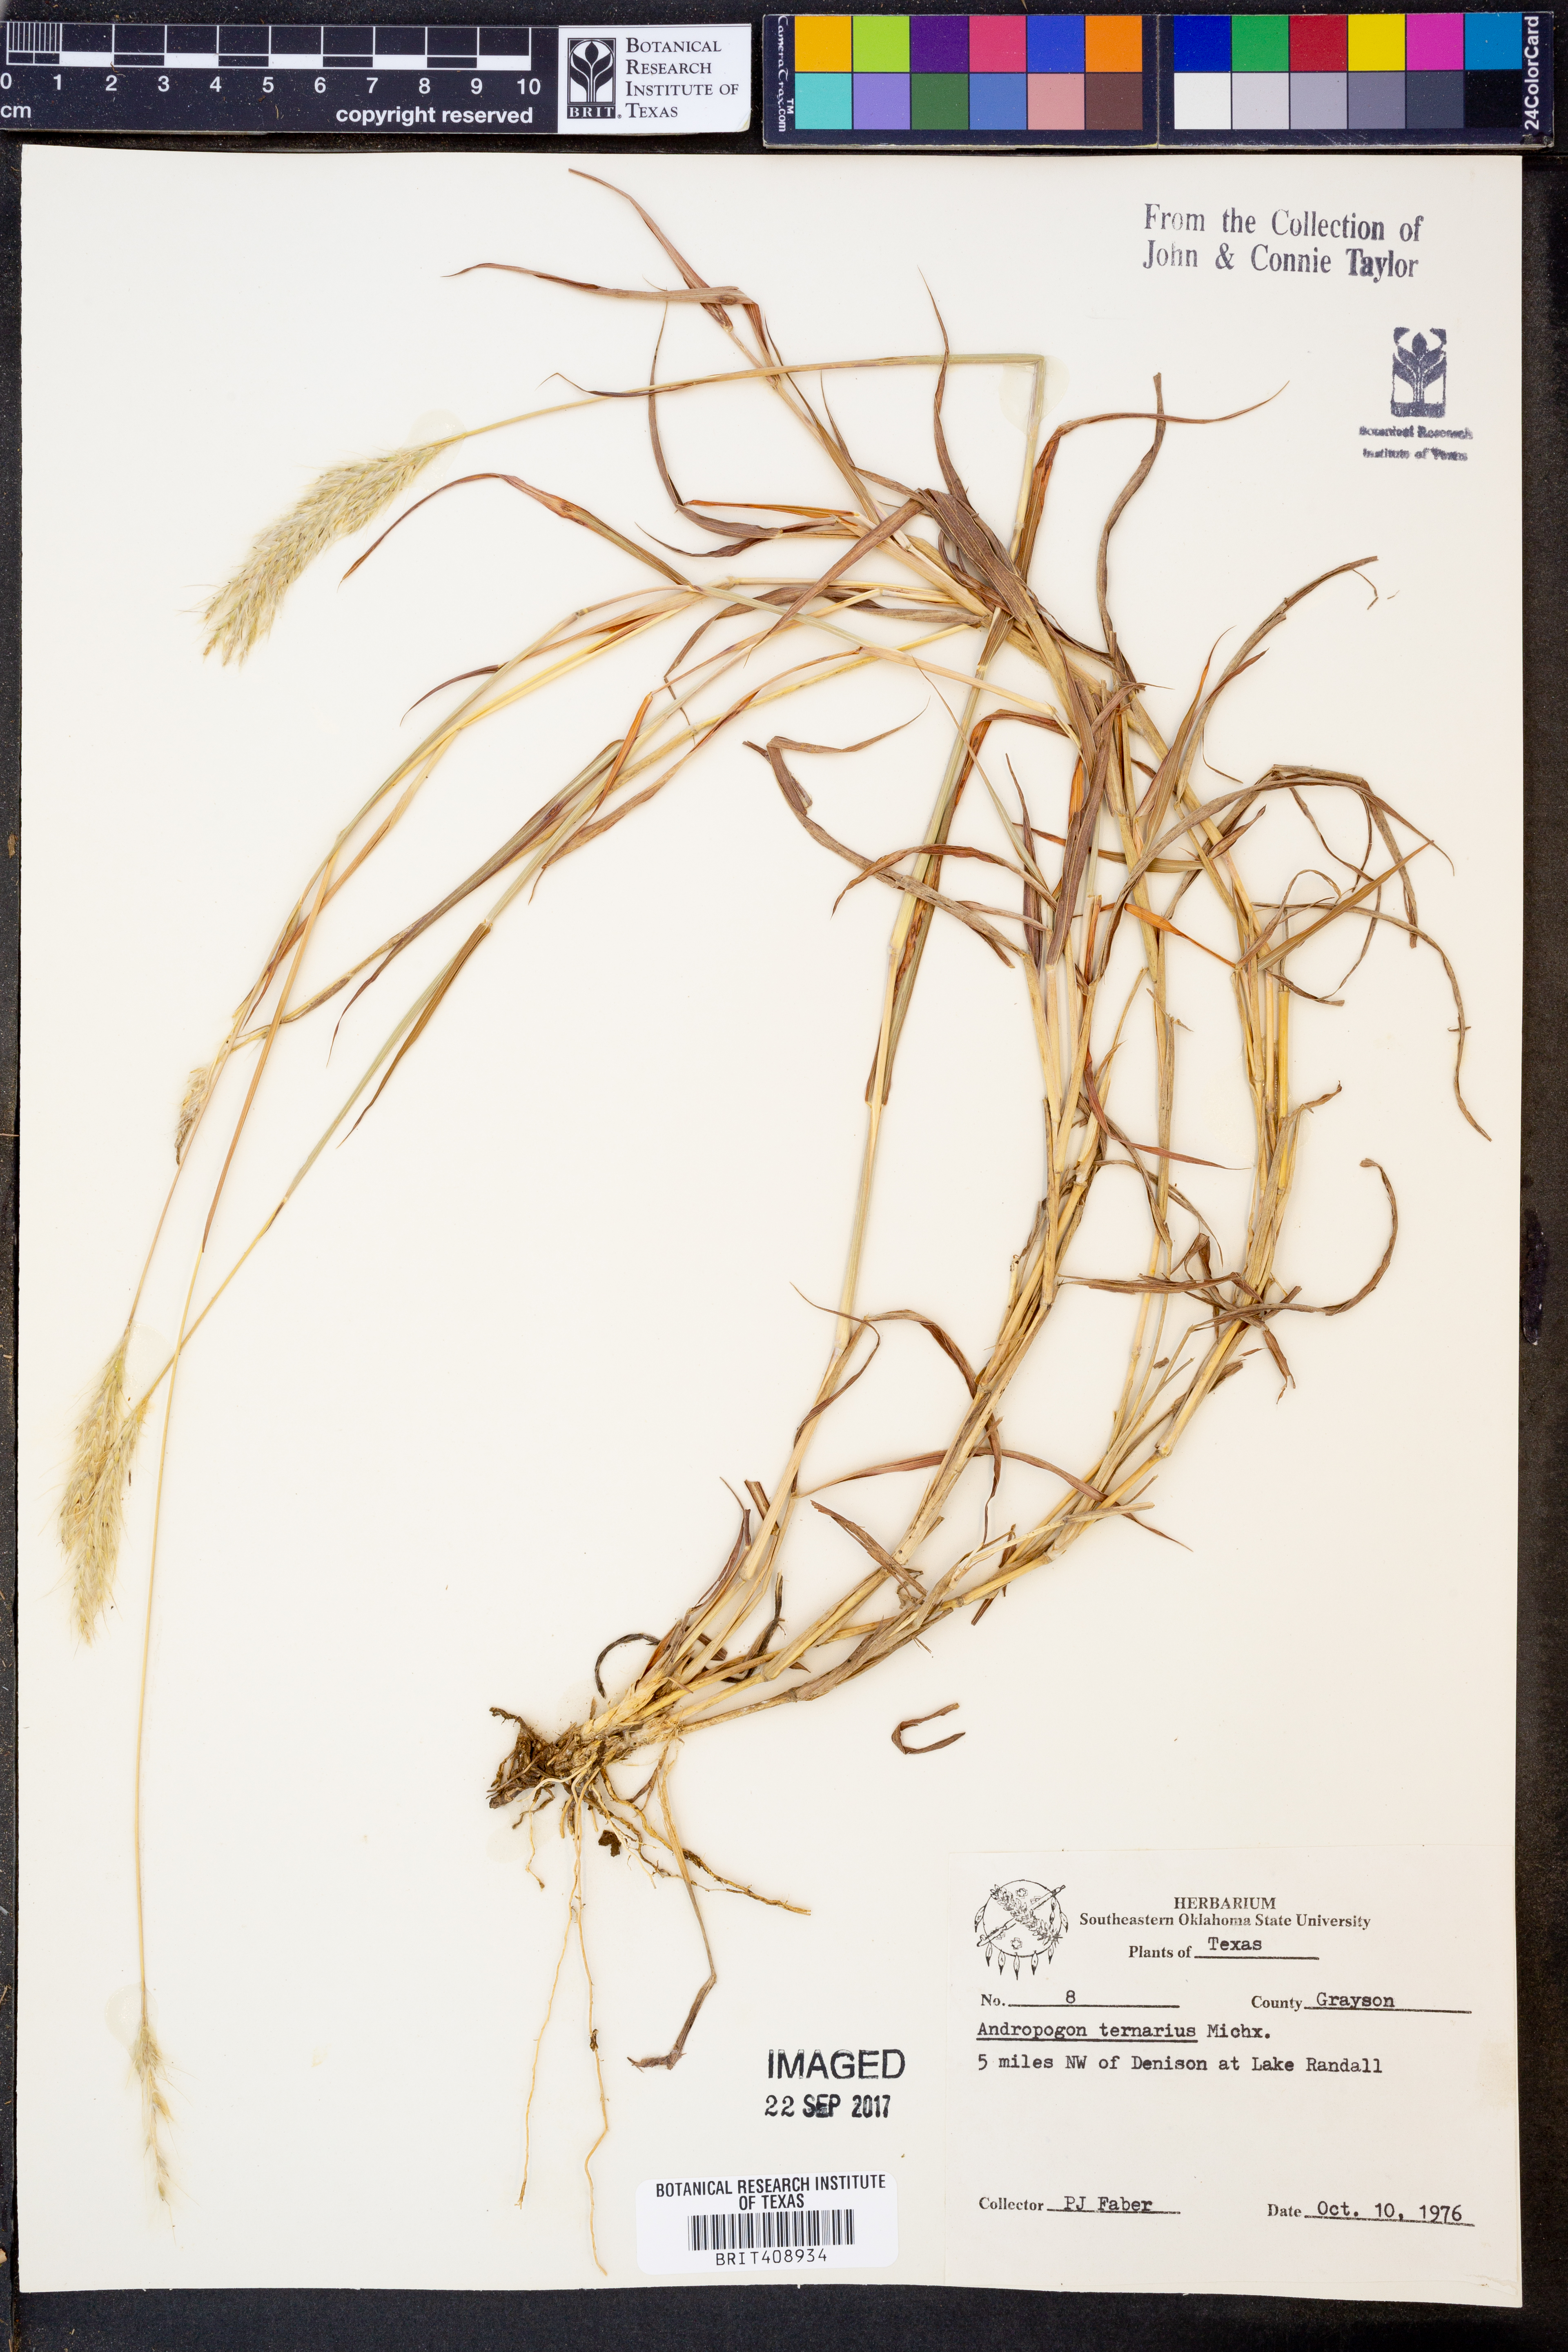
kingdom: Plantae
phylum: Tracheophyta
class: Liliopsida
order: Poales
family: Poaceae
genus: Andropogon
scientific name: Andropogon ternarius
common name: Split bluestem
